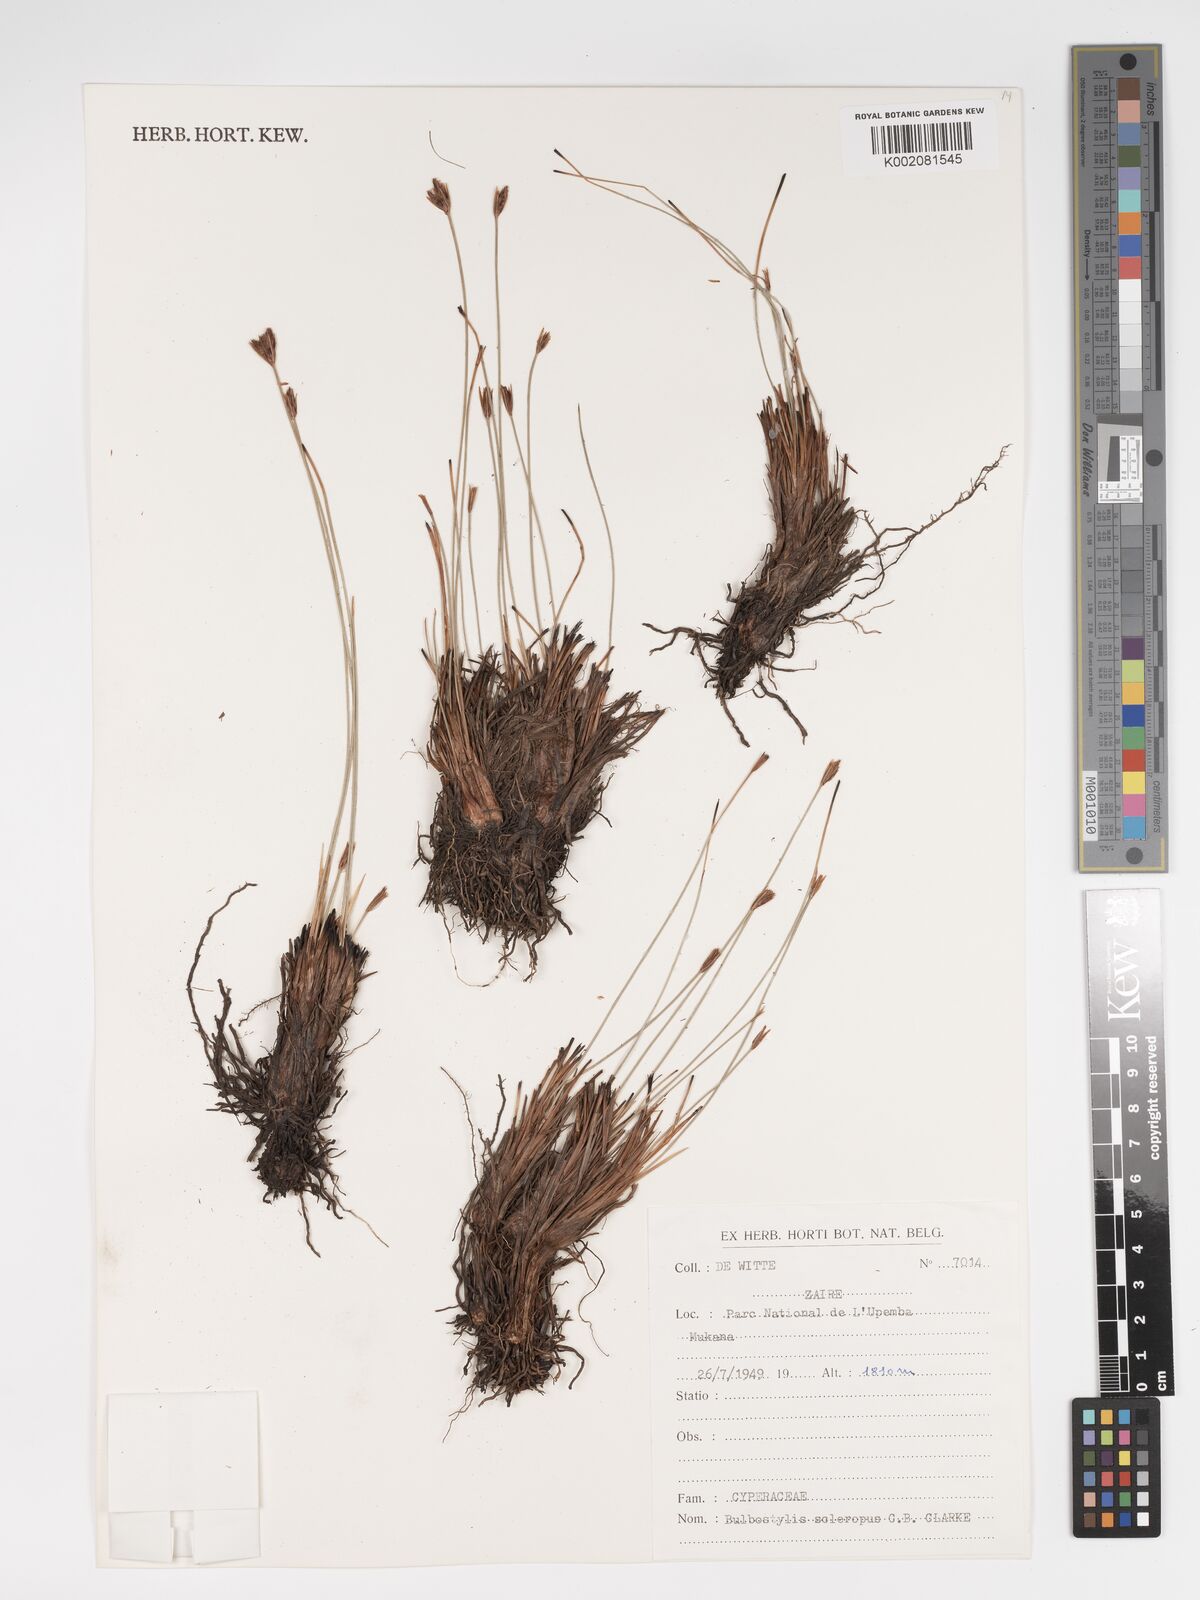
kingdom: Plantae
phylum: Tracheophyta
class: Liliopsida
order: Poales
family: Cyperaceae
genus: Bulbostylis
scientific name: Bulbostylis schoenoides
